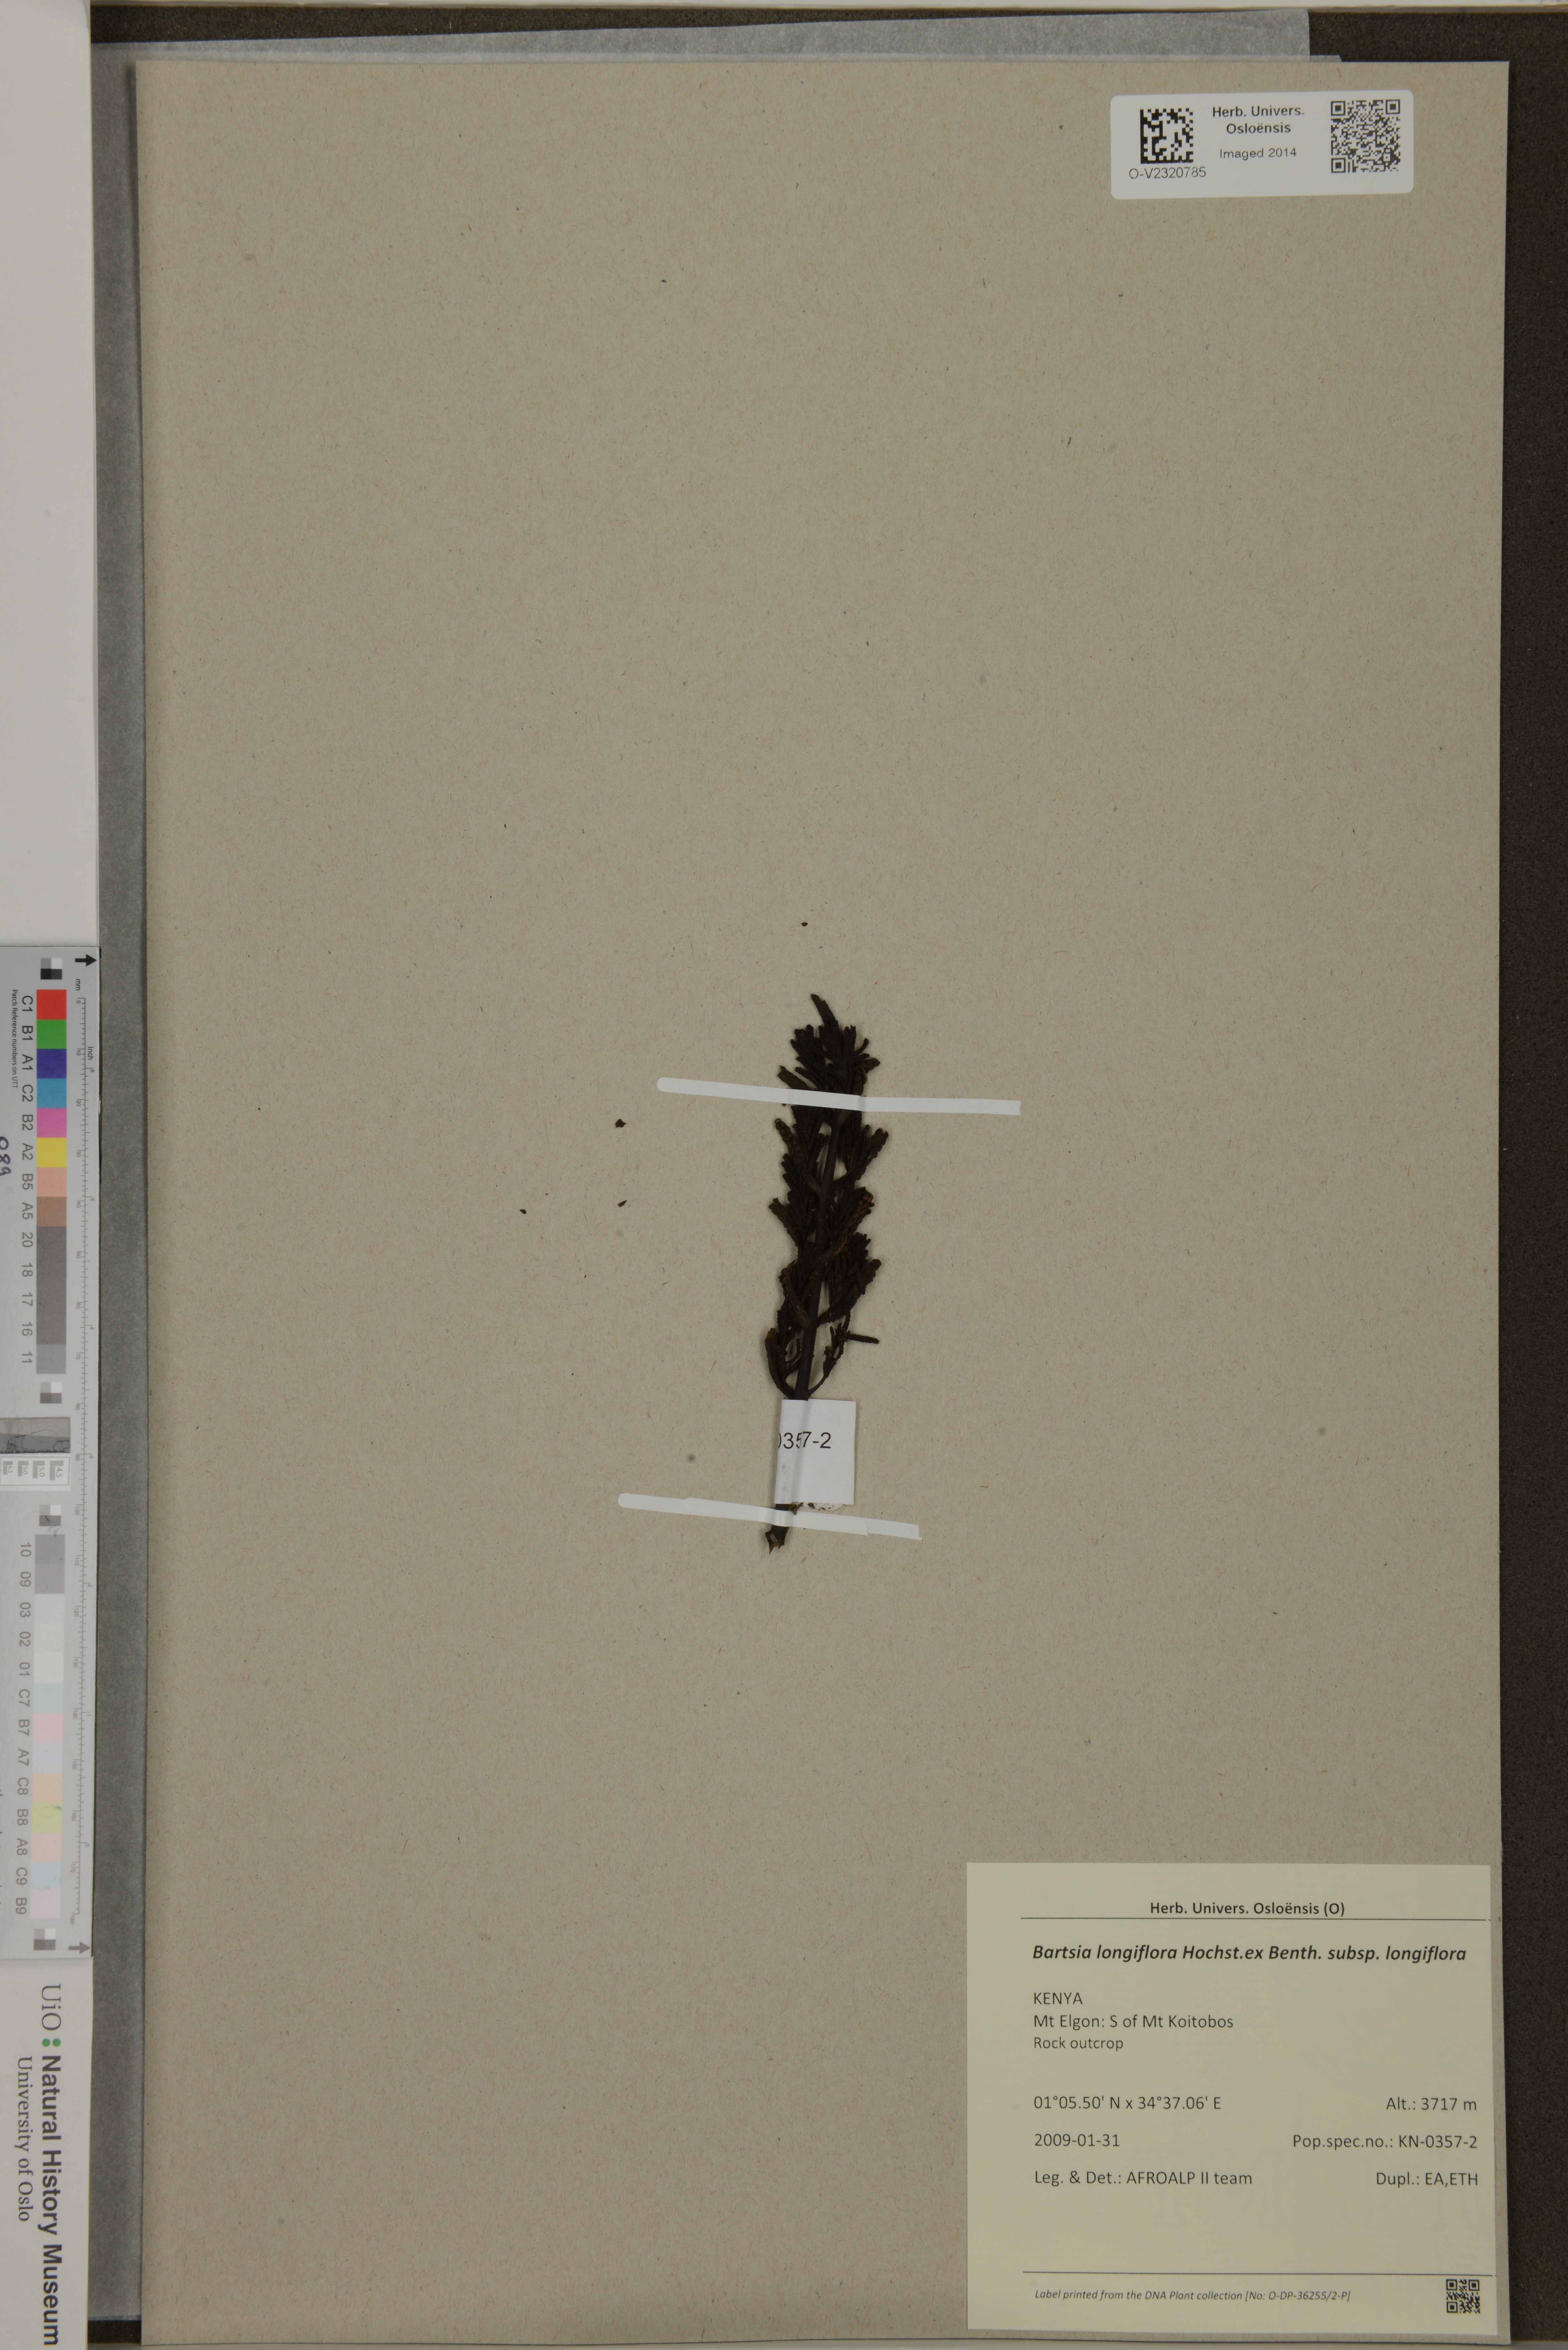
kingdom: Plantae
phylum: Tracheophyta
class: Magnoliopsida
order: Lamiales
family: Orobanchaceae
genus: Hedbergia
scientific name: Hedbergia longiflora
